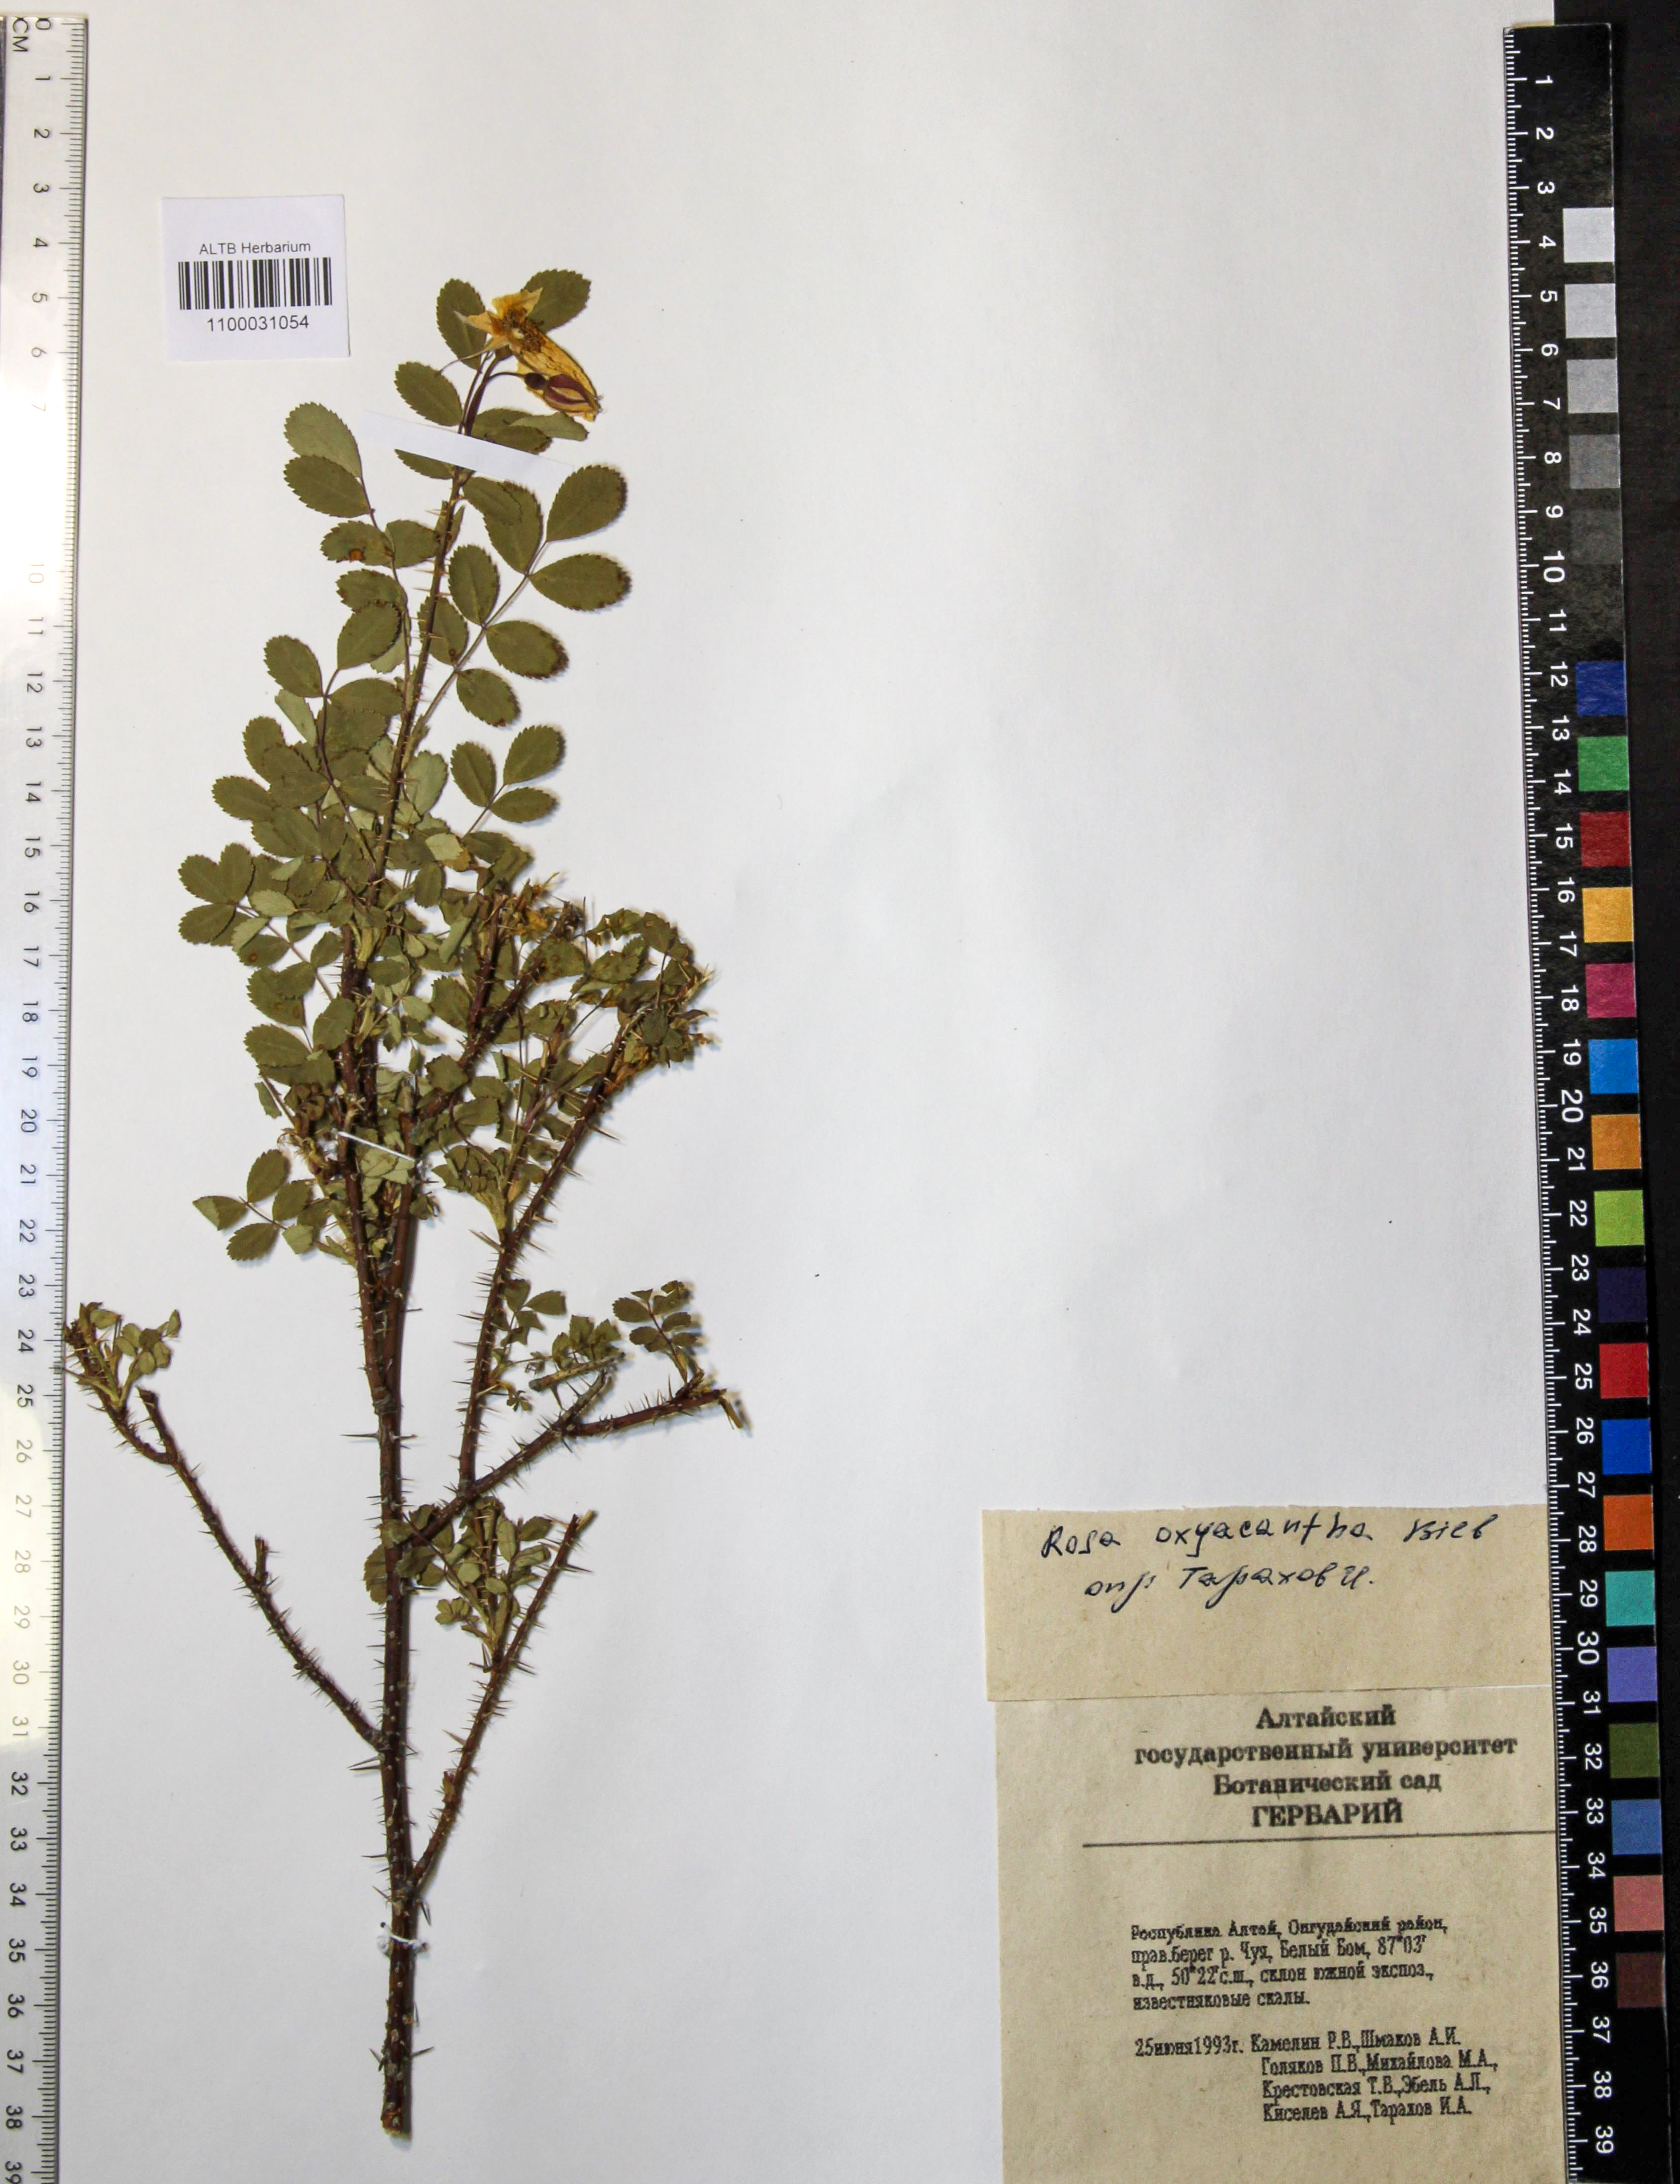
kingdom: Plantae
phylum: Tracheophyta
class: Magnoliopsida
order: Rosales
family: Rosaceae
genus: Rosa
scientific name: Rosa oxyacantha
